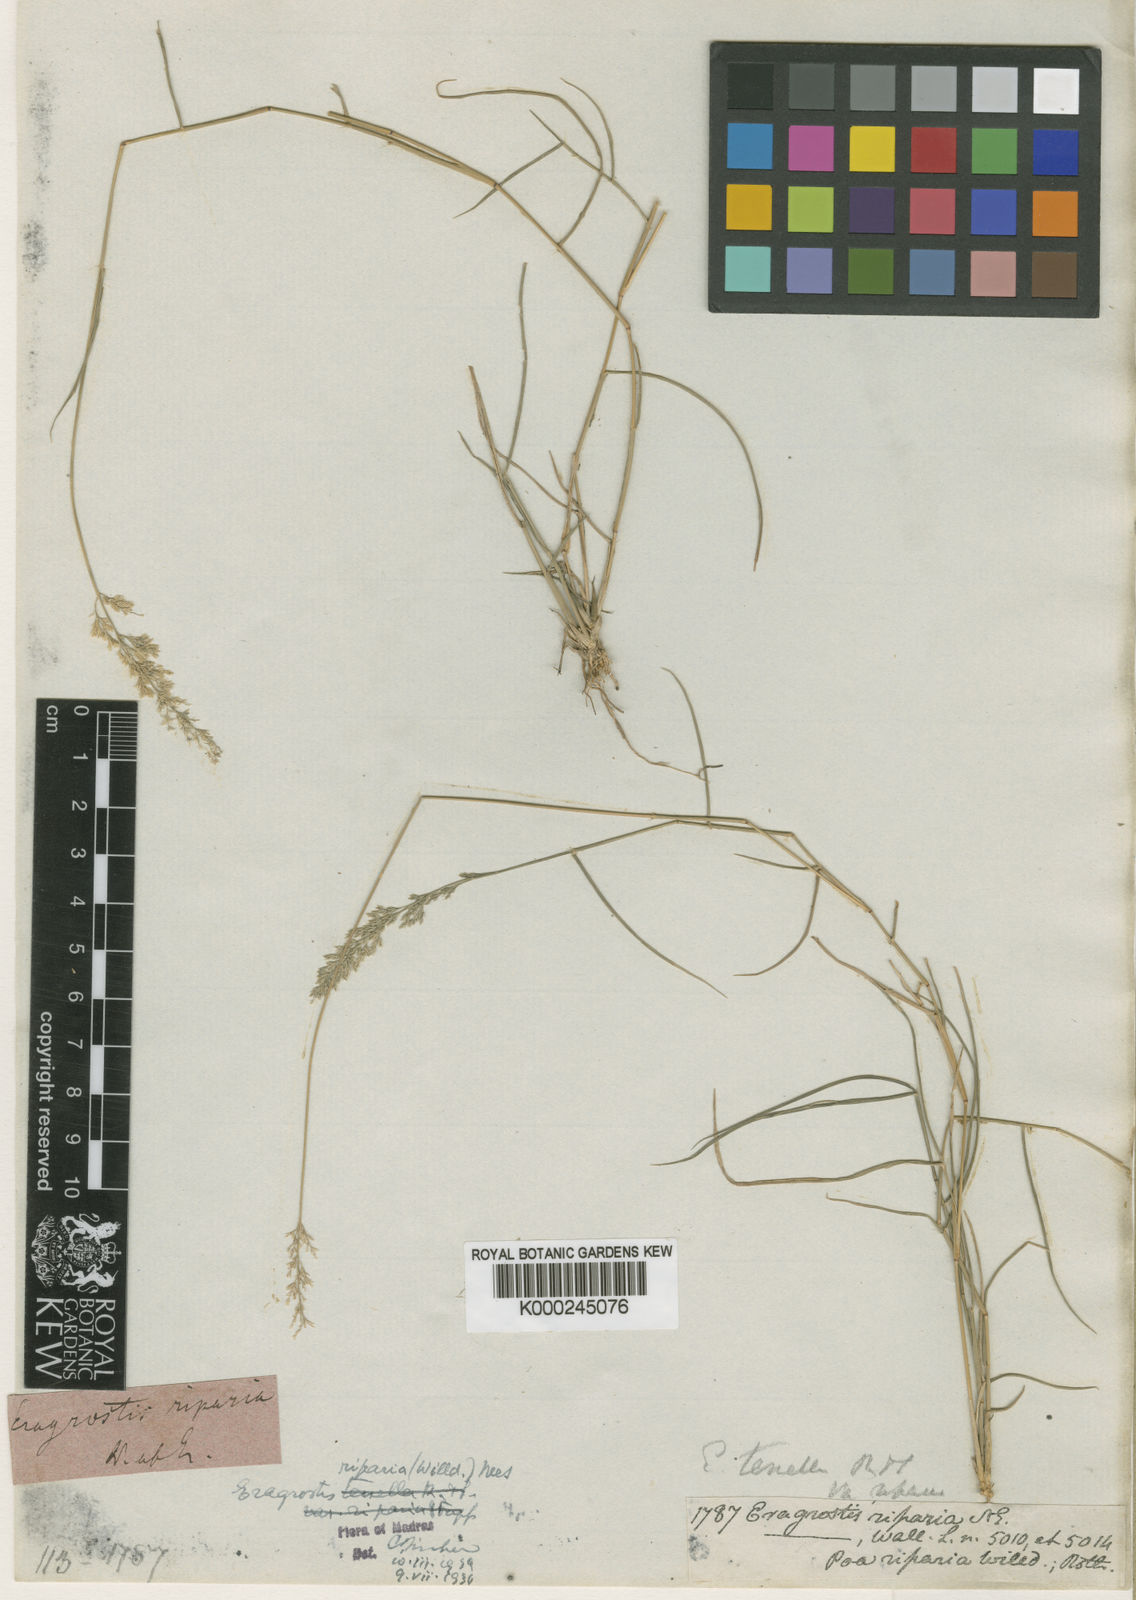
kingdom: Plantae
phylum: Tracheophyta
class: Liliopsida
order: Poales
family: Poaceae
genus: Eragrostis
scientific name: Eragrostis riparia
